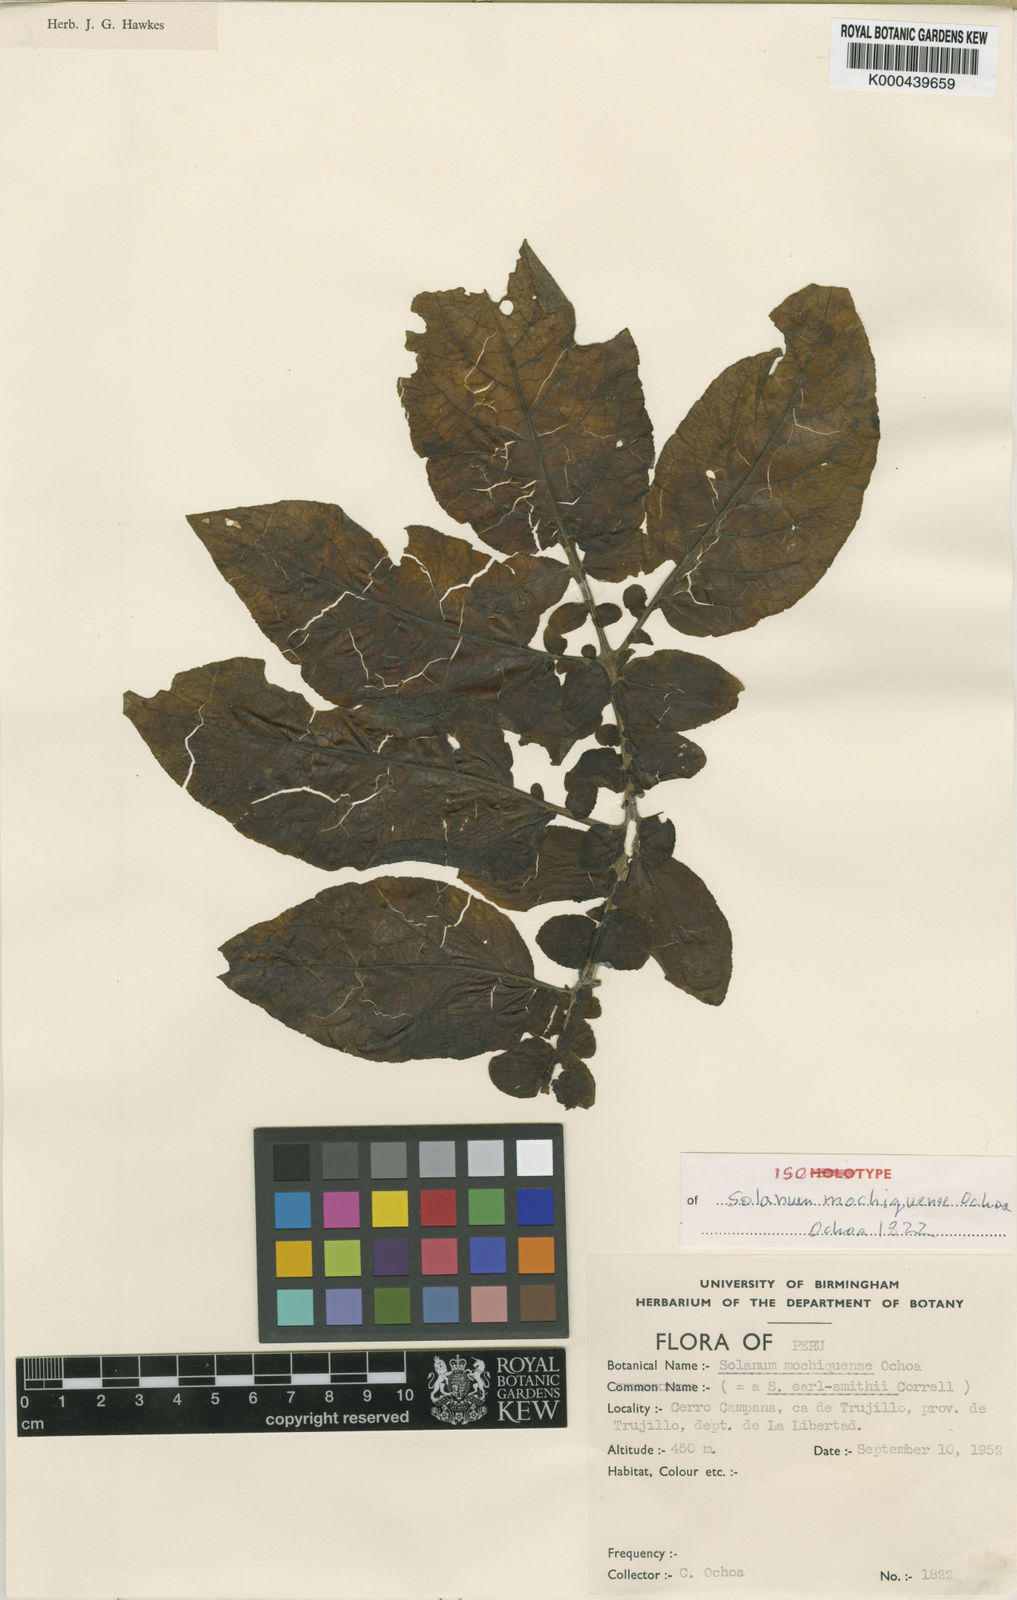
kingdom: Plantae
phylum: Tracheophyta
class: Magnoliopsida
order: Solanales
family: Solanaceae
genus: Solanum
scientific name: Solanum mochiquense
